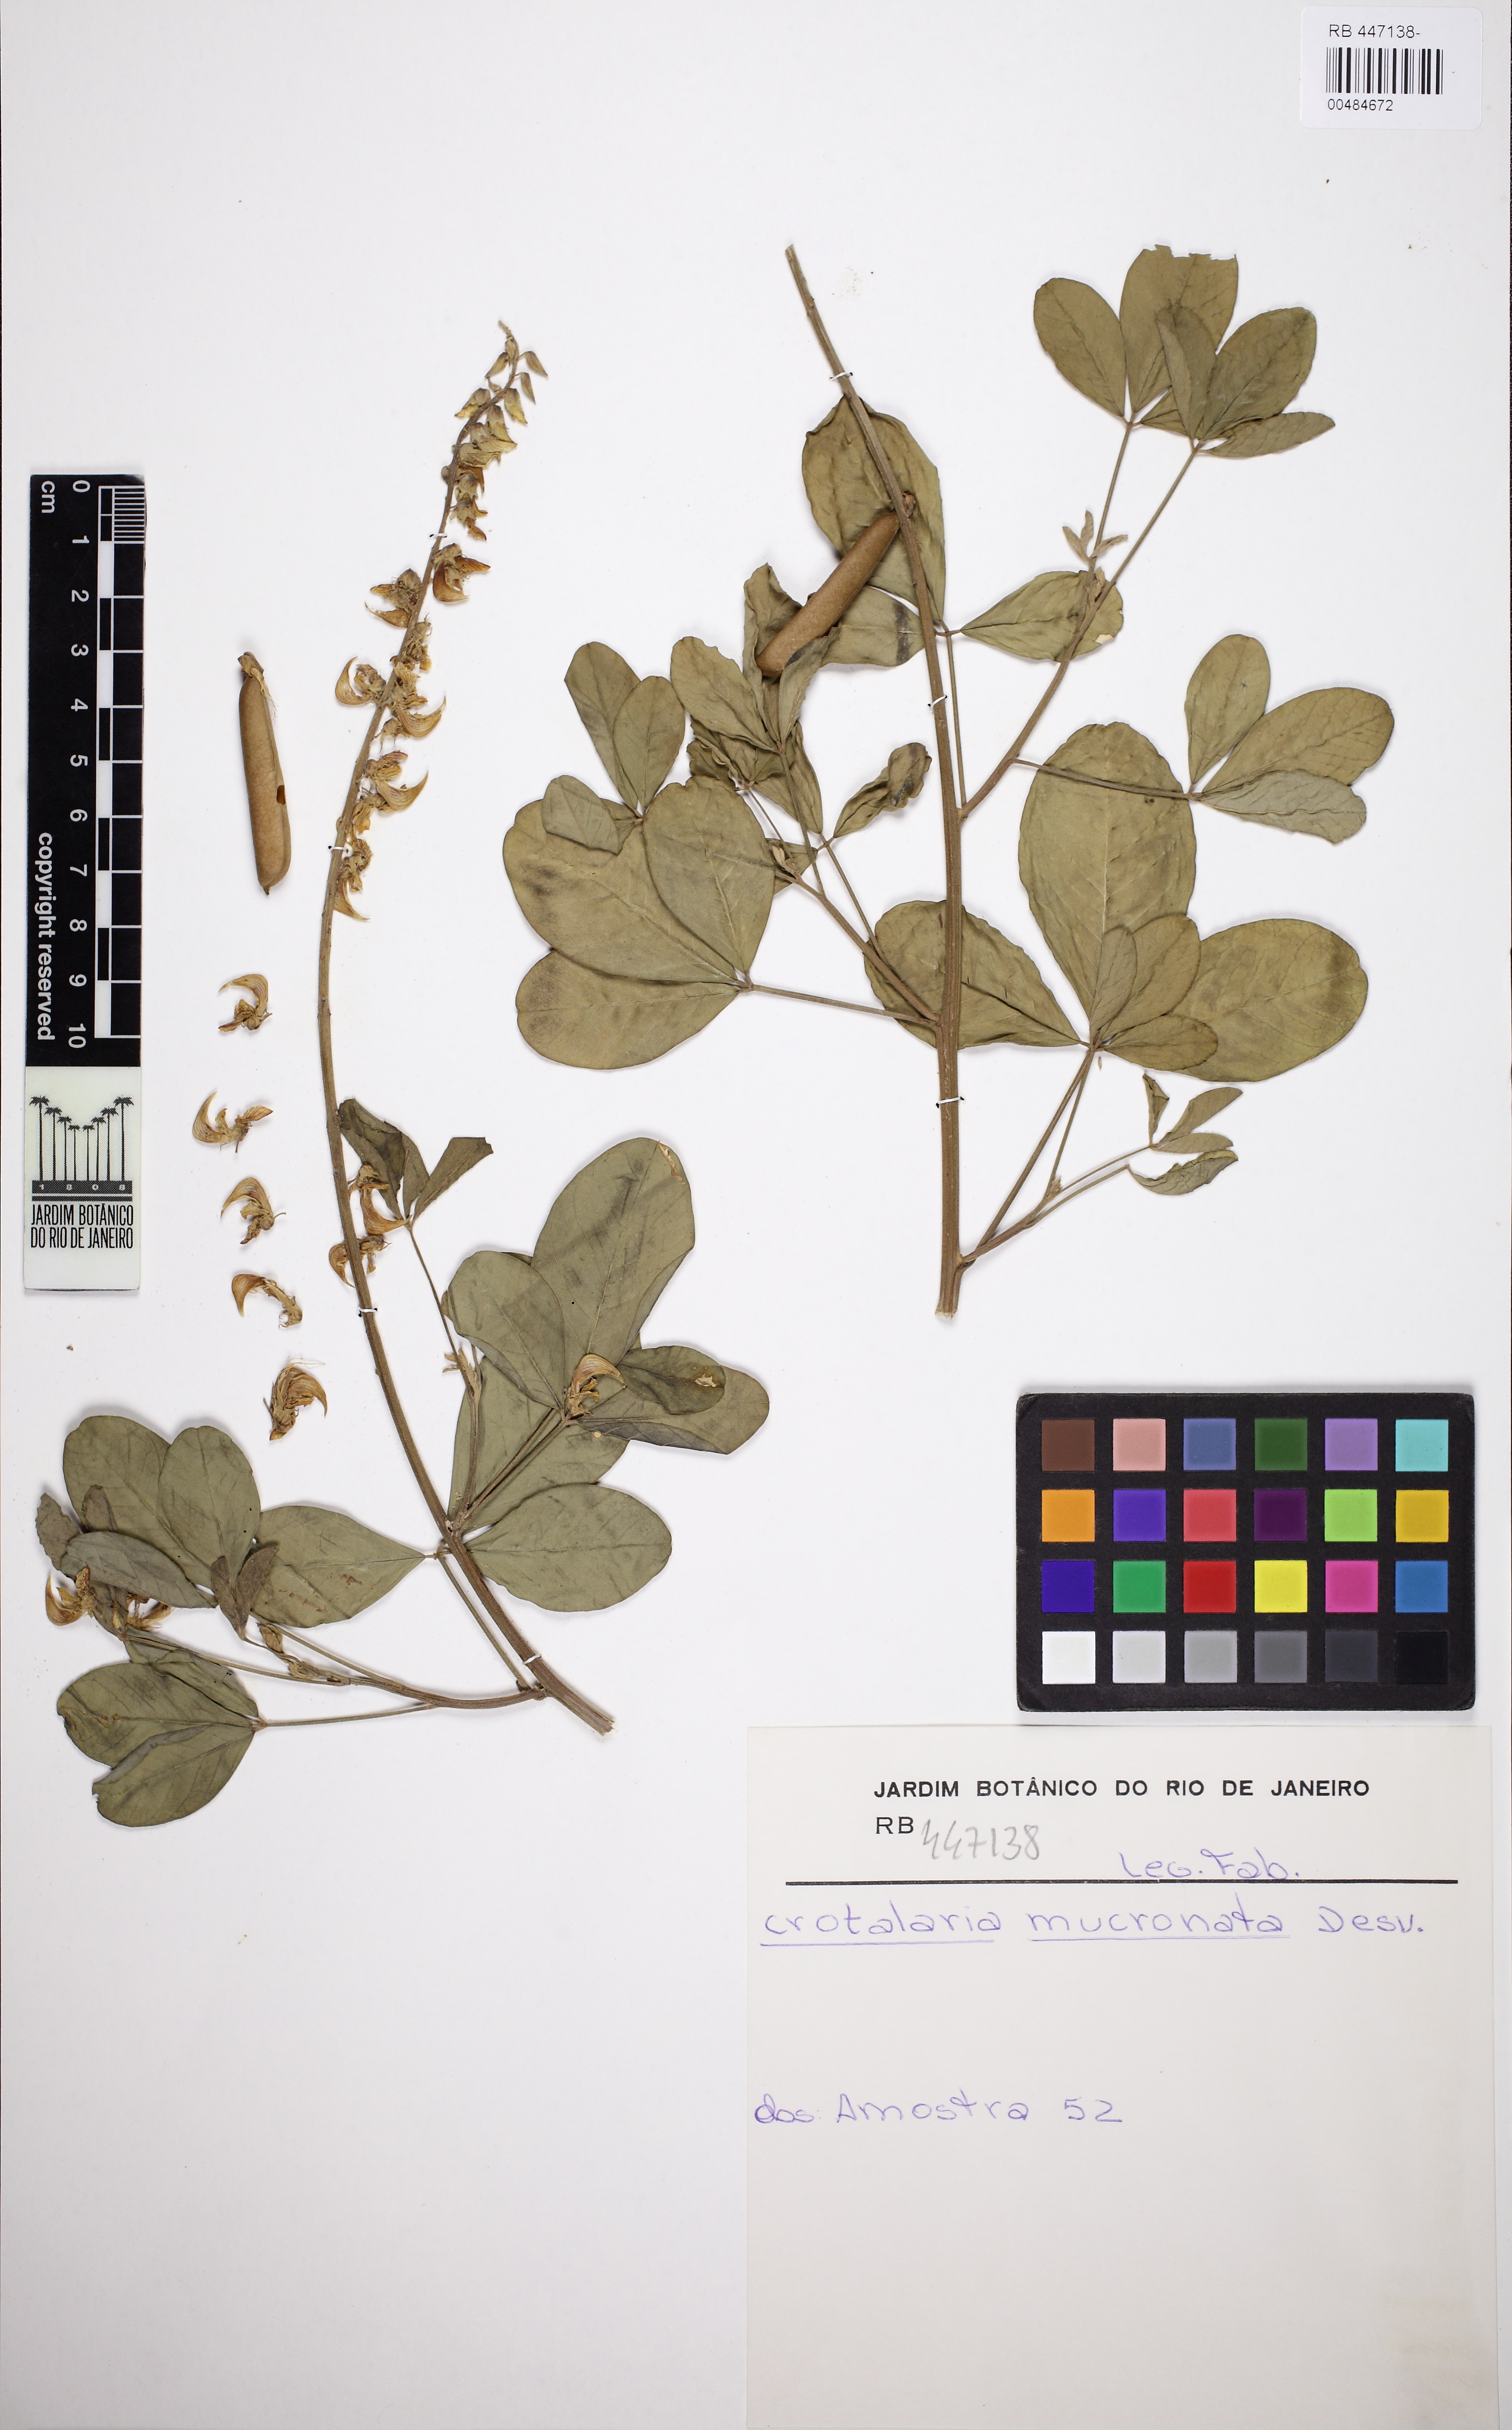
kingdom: Plantae
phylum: Tracheophyta
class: Magnoliopsida
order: Fabales
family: Fabaceae
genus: Crotalaria
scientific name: Crotalaria pallida
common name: Smooth rattlebox
